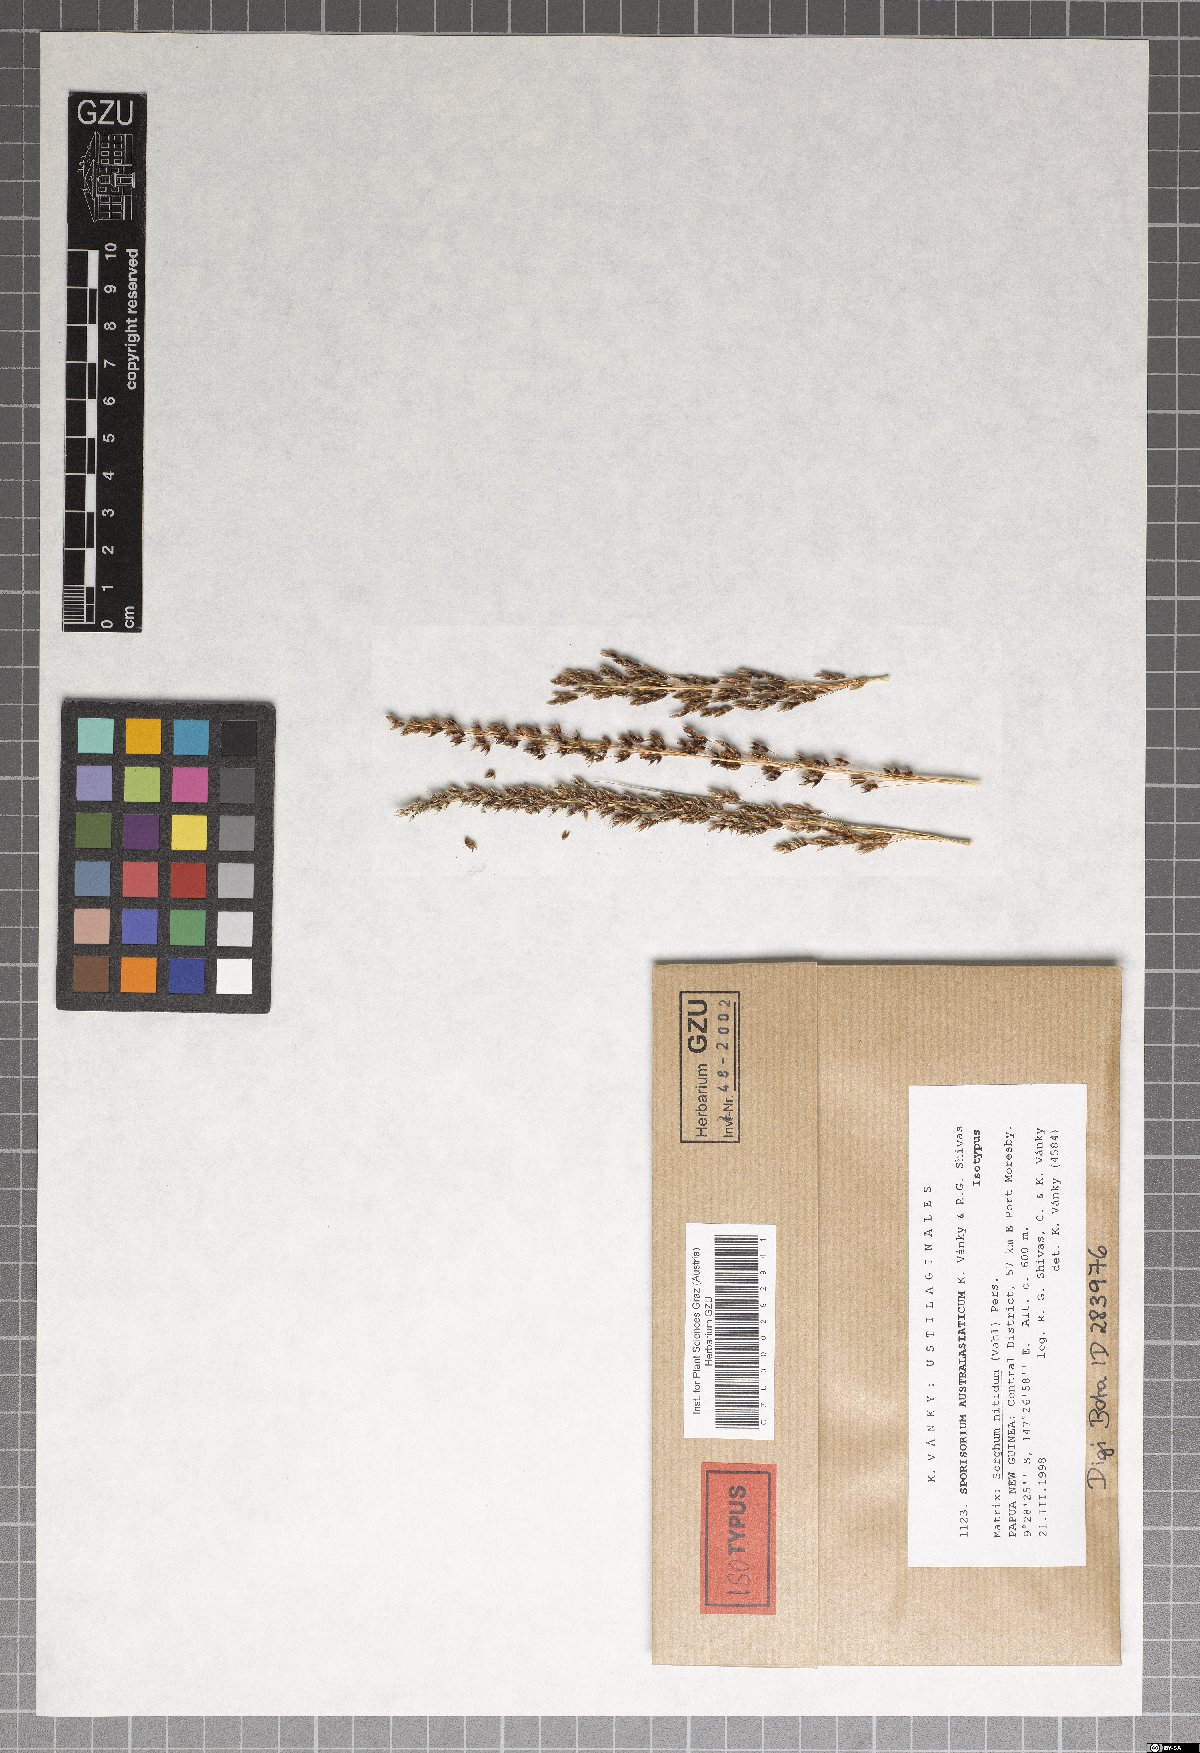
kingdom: Fungi
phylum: Basidiomycota
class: Ustilaginomycetes
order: Ustilaginales
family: Ustilaginaceae
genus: Sporisorium
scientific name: Sporisorium australasiaticum
